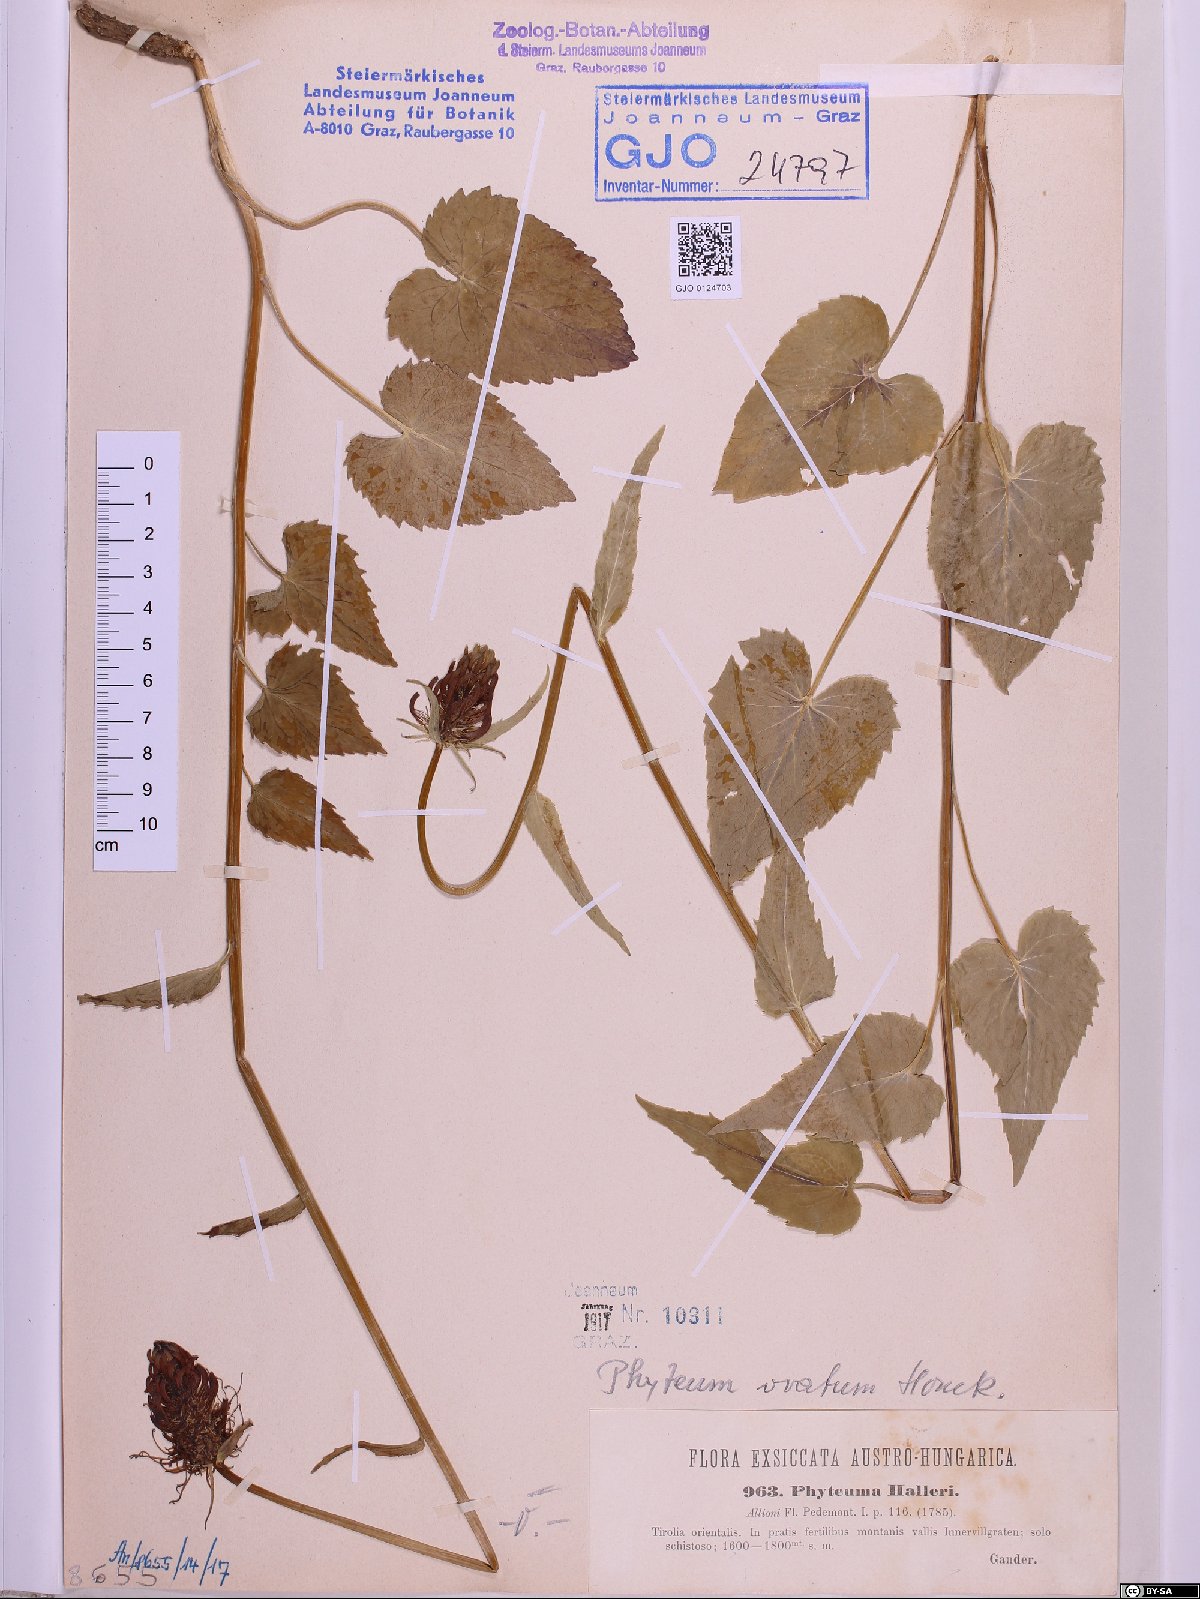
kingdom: Plantae
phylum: Tracheophyta
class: Magnoliopsida
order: Asterales
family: Campanulaceae
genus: Phyteuma
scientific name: Phyteuma ovatum
